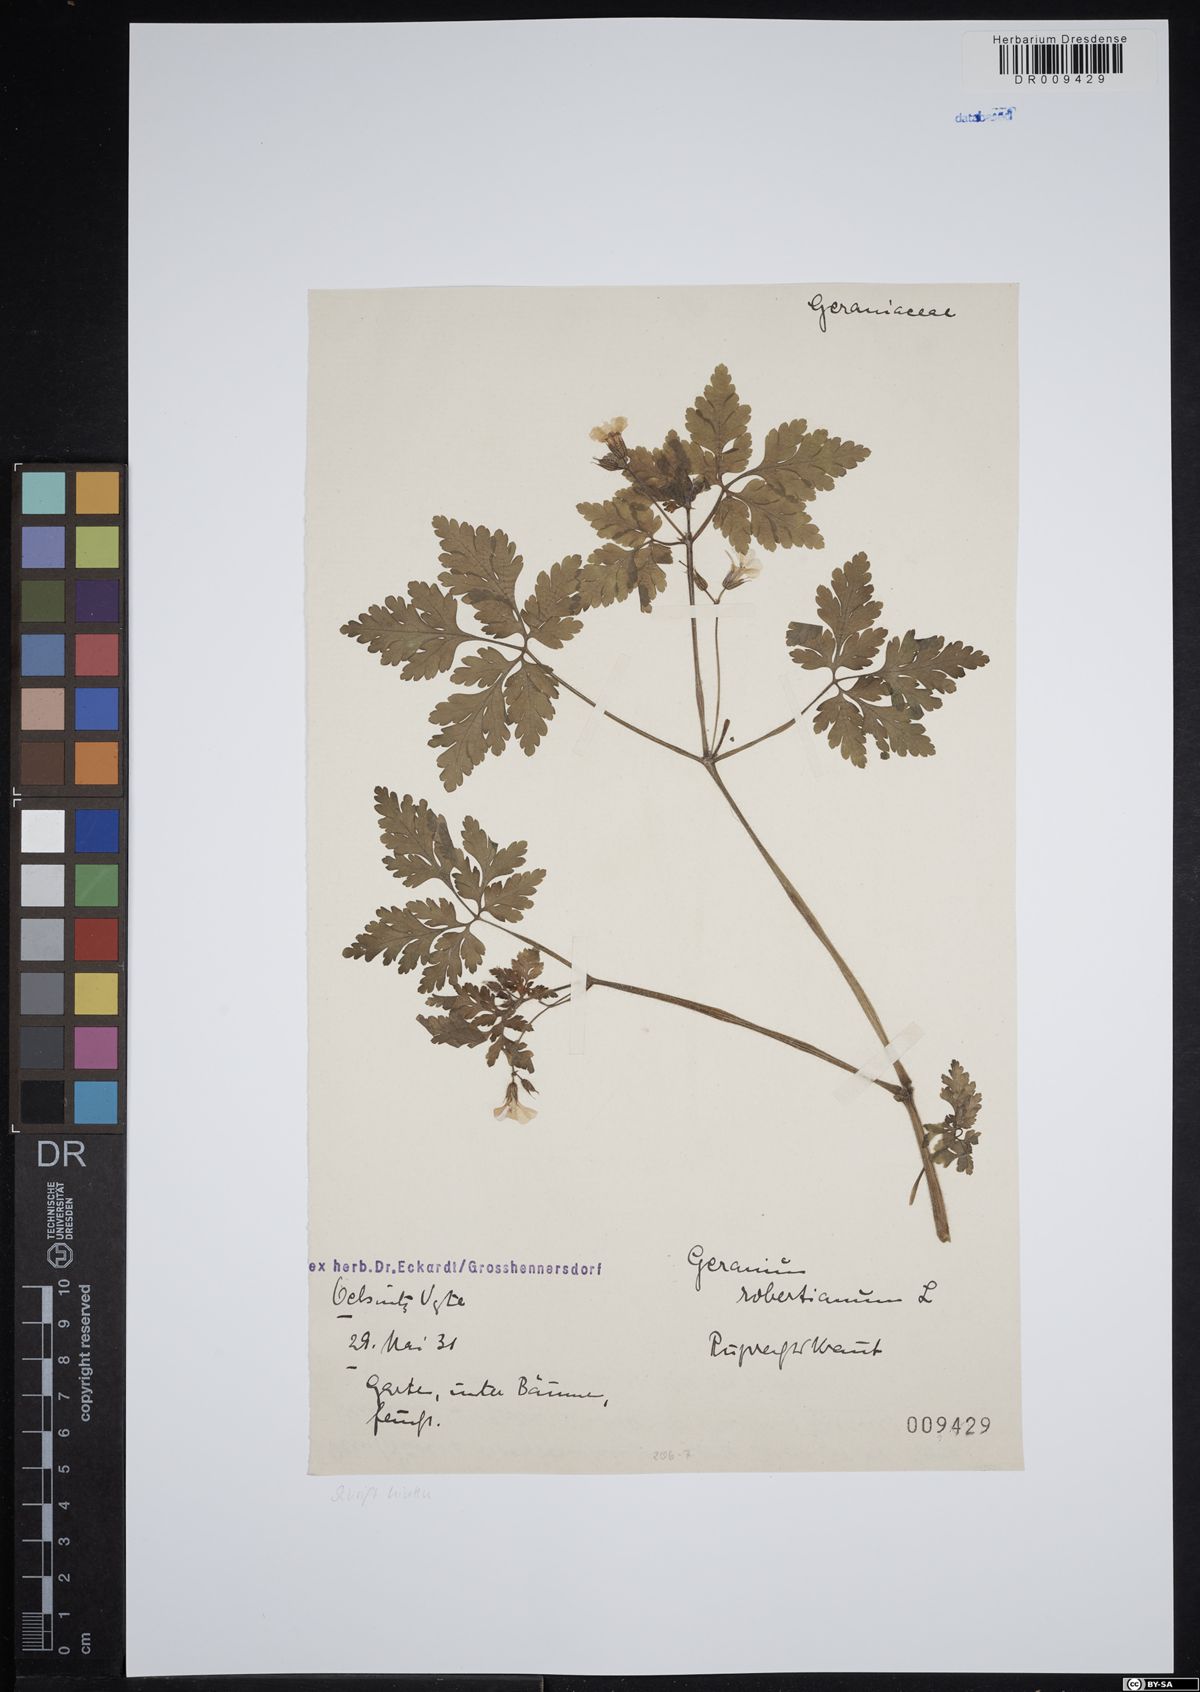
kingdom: Plantae
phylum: Tracheophyta
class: Magnoliopsida
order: Geraniales
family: Geraniaceae
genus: Geranium
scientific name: Geranium robertianum
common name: Herb-robert
